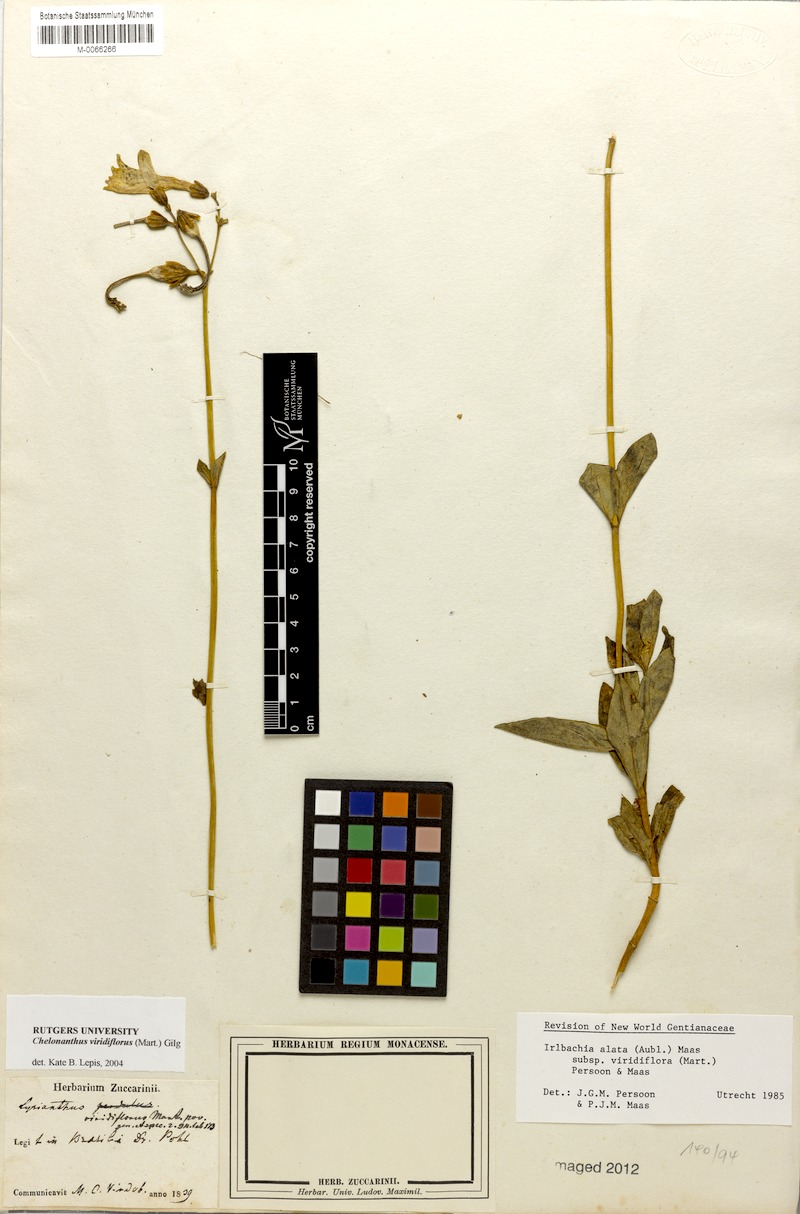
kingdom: Plantae
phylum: Tracheophyta
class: Magnoliopsida
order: Gentianales
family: Gentianaceae
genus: Chelonanthus
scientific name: Chelonanthus viridiflorus
